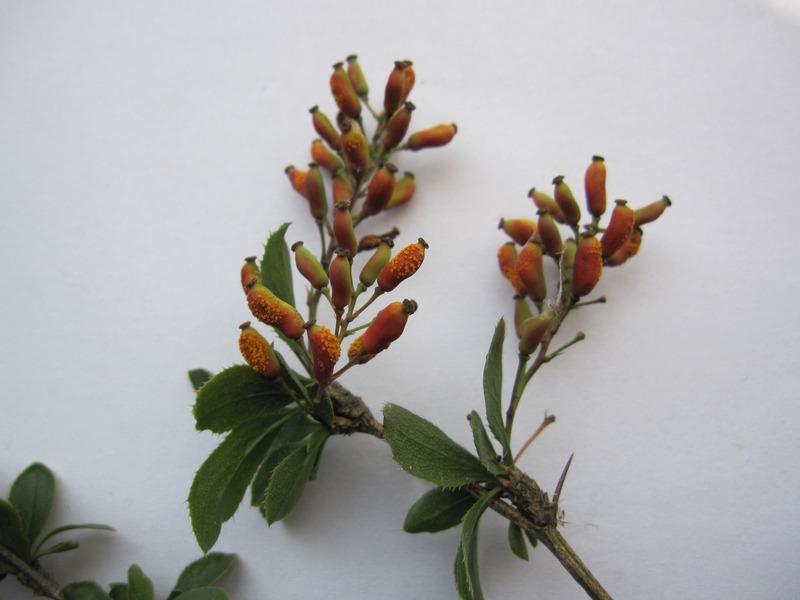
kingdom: Fungi
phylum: Basidiomycota
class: Pucciniomycetes
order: Pucciniales
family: Pucciniaceae
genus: Puccinia
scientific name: Puccinia graminis
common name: Black stem rust
